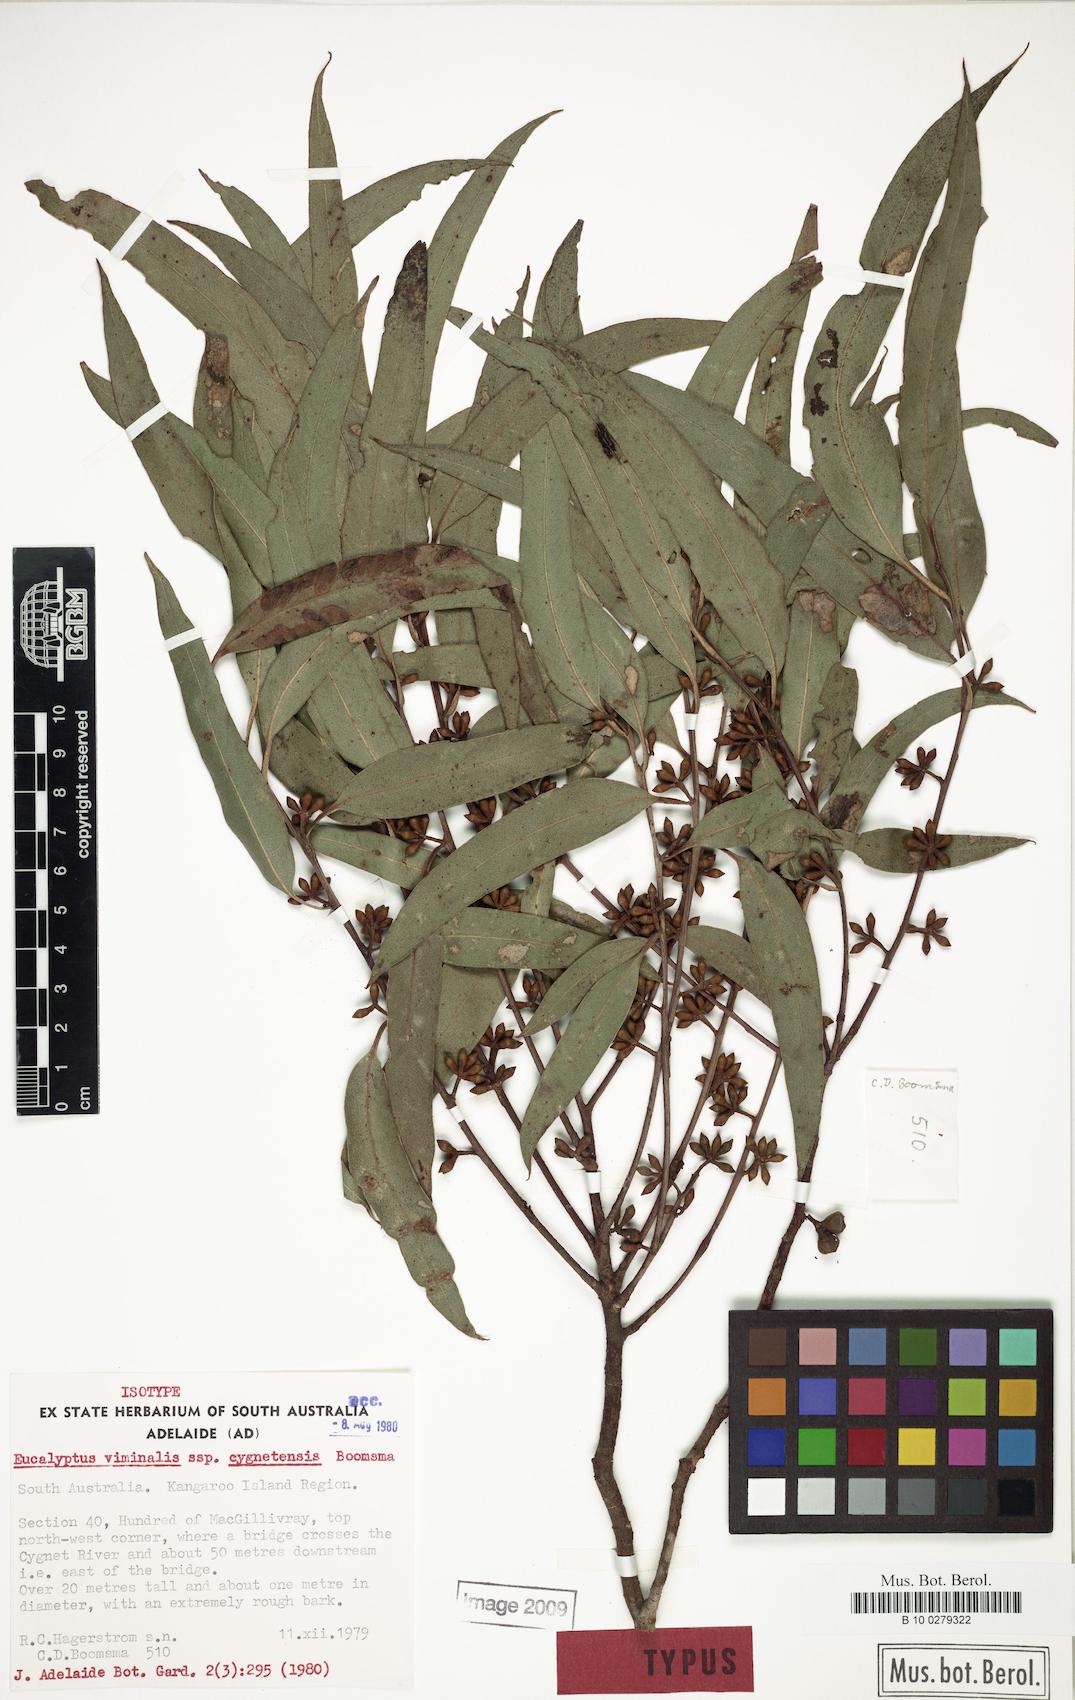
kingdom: Plantae
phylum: Tracheophyta
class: Magnoliopsida
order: Myrtales
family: Myrtaceae
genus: Eucalyptus
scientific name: Eucalyptus viminalis
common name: Manna gum
